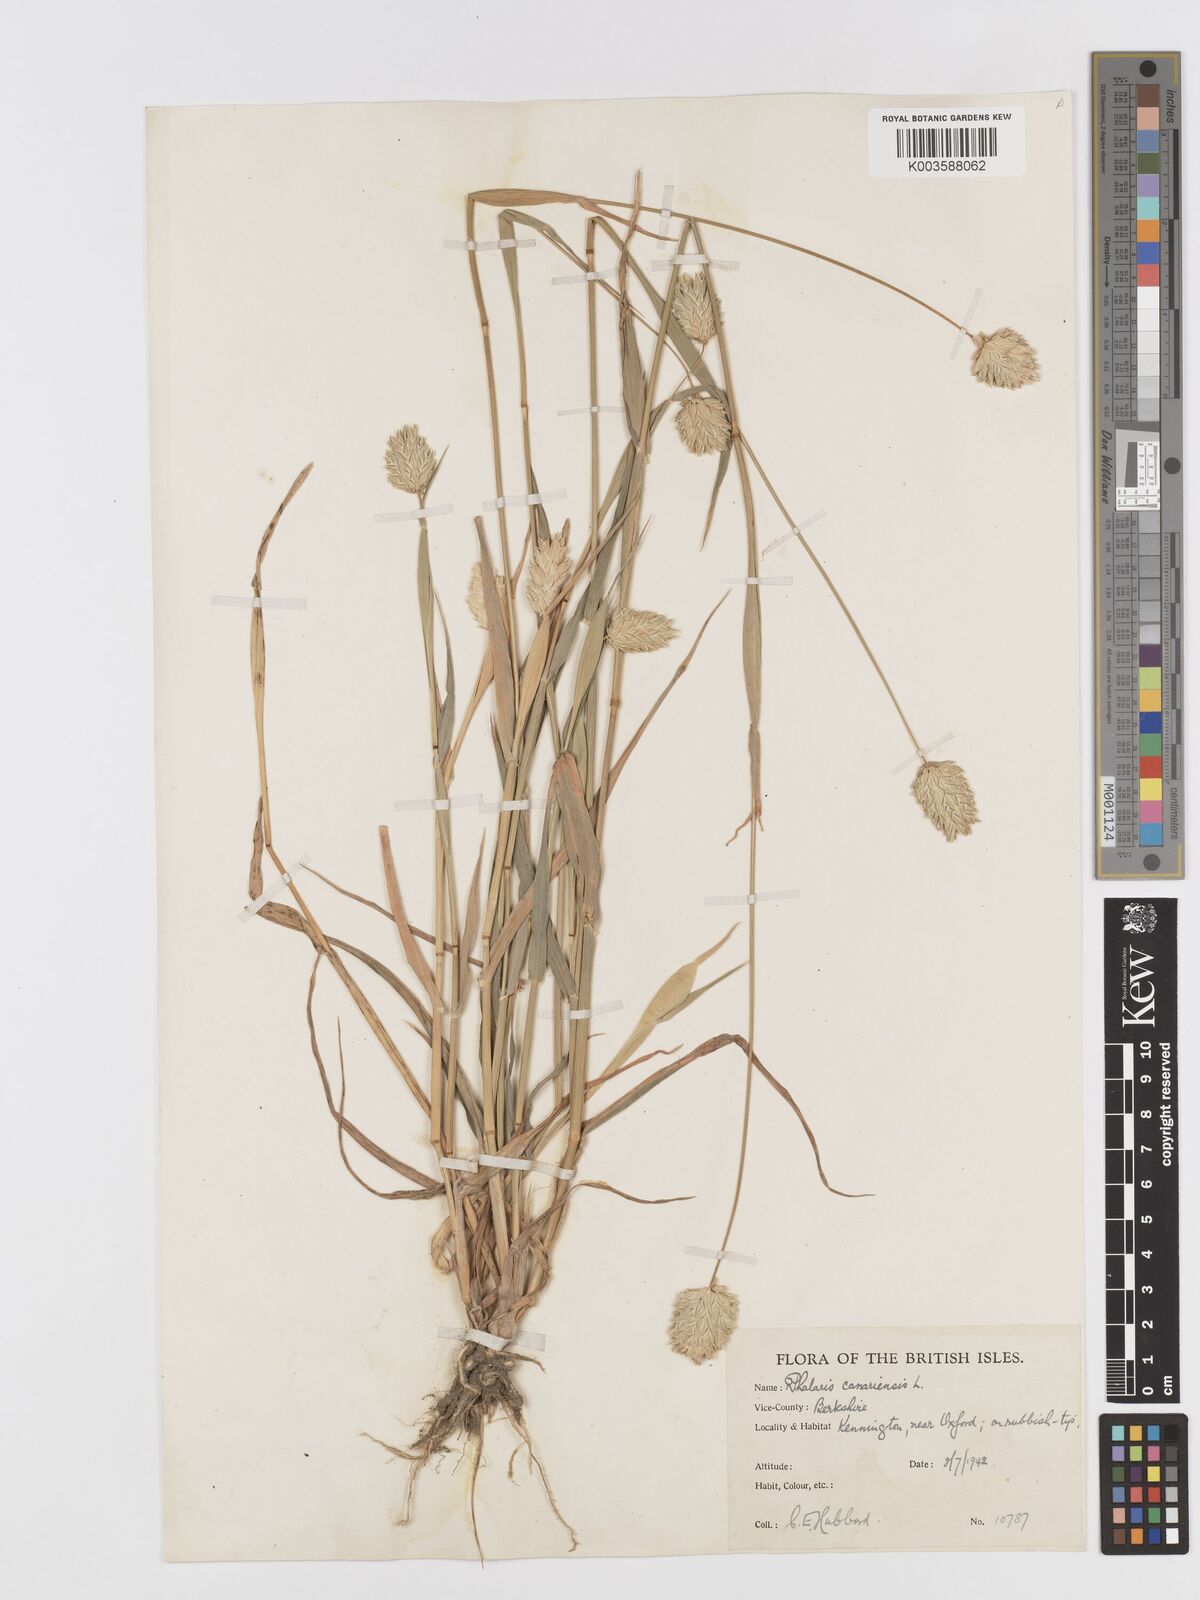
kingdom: Plantae
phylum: Tracheophyta
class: Liliopsida
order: Poales
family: Poaceae
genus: Phalaris
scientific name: Phalaris canariensis
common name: Annual canarygrass
